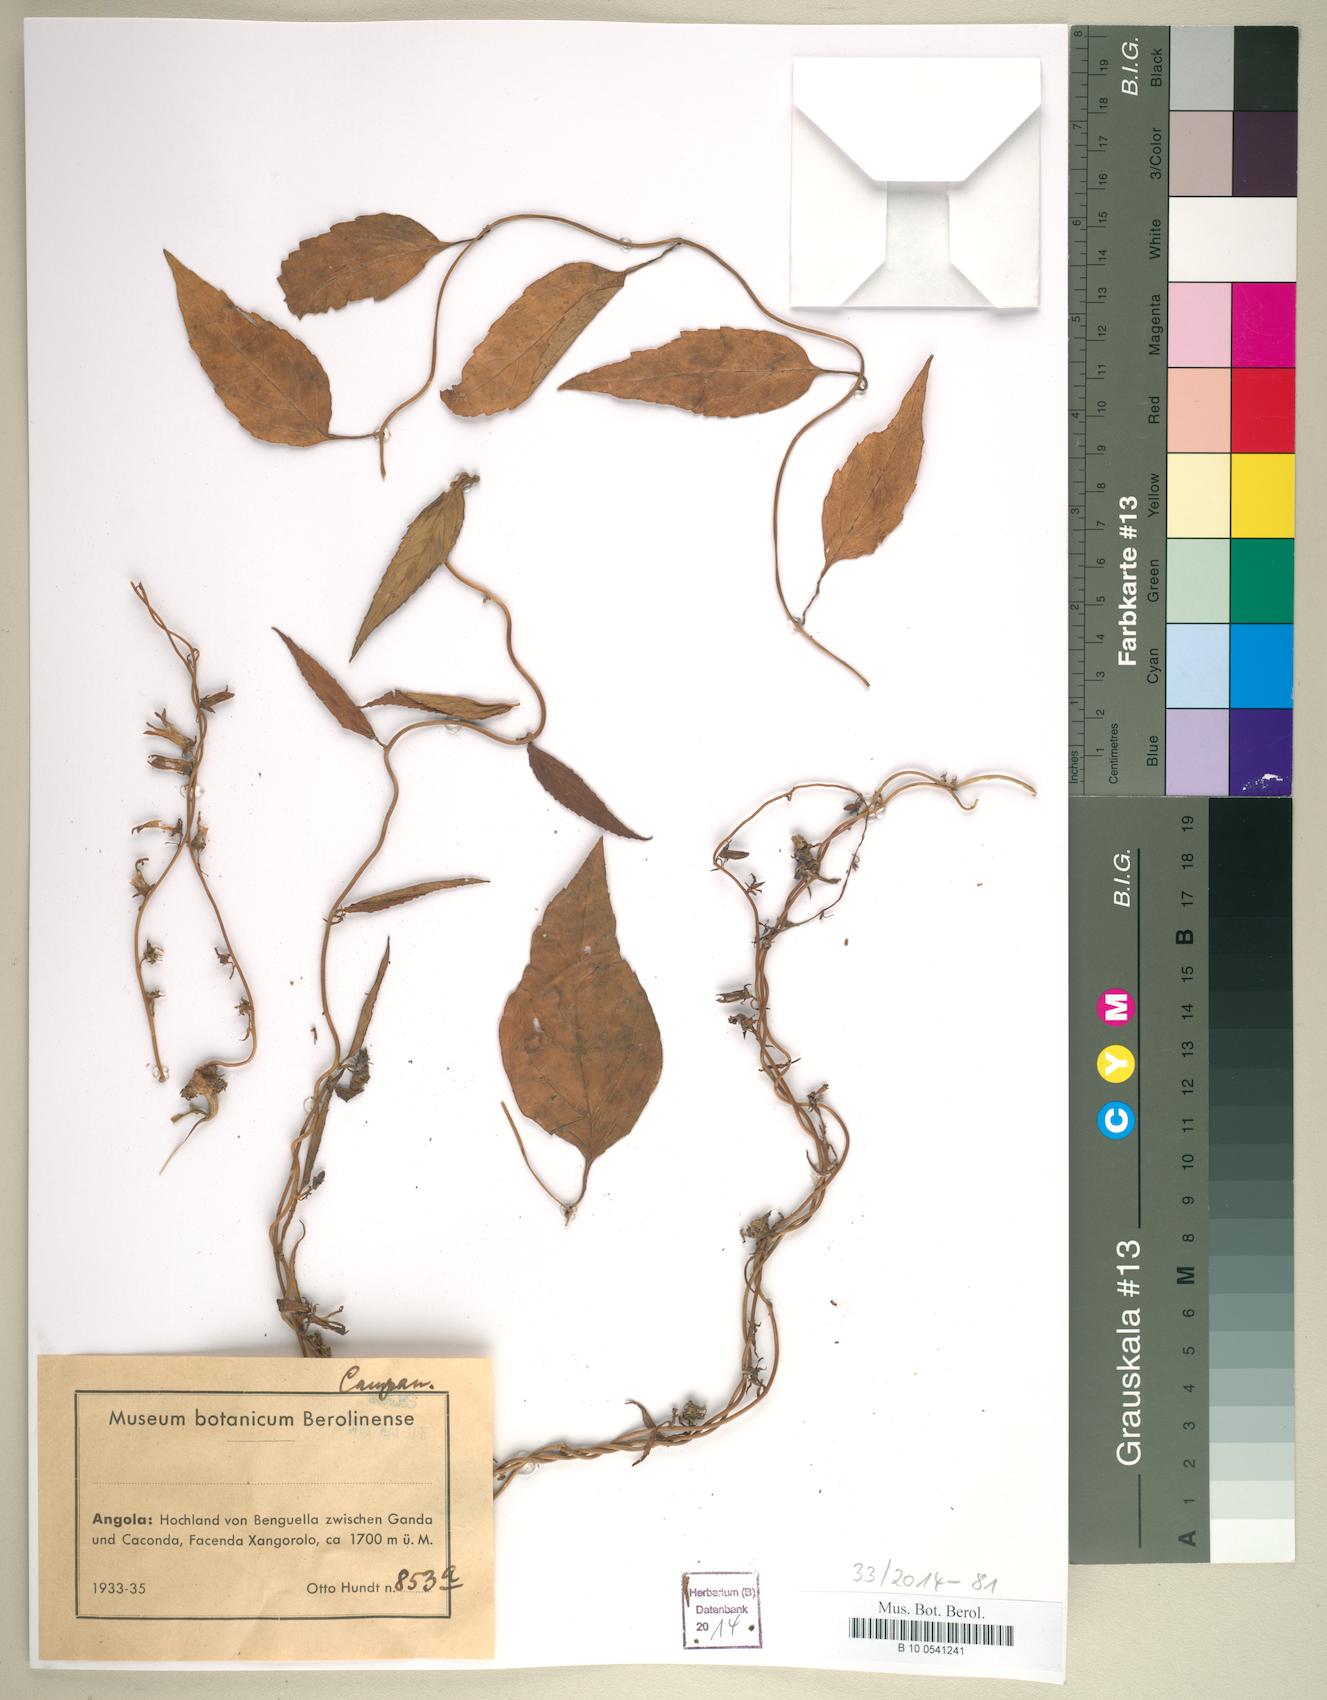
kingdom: Plantae
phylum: Tracheophyta
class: Magnoliopsida
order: Asterales
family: Campanulaceae
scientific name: Campanulaceae
